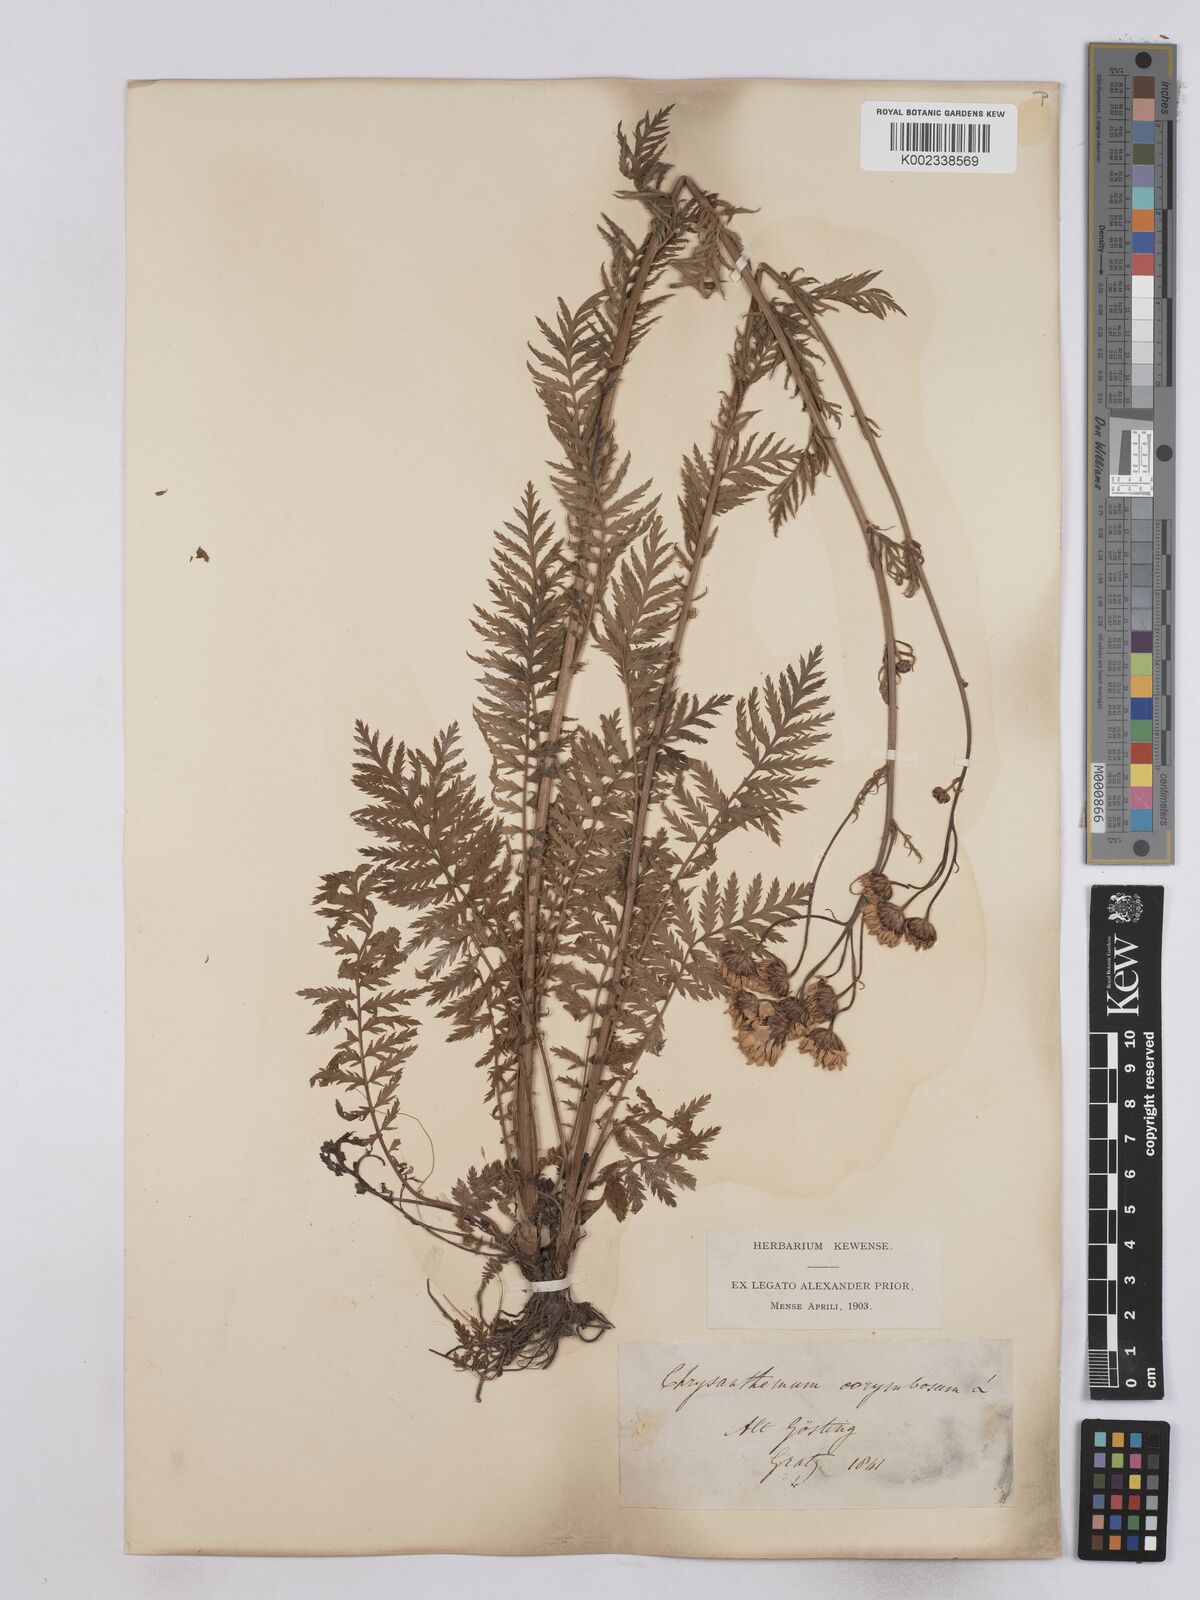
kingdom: Plantae
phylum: Tracheophyta
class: Magnoliopsida
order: Asterales
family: Asteraceae
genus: Tanacetum
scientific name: Tanacetum corymbosum
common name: Scentless feverfew
